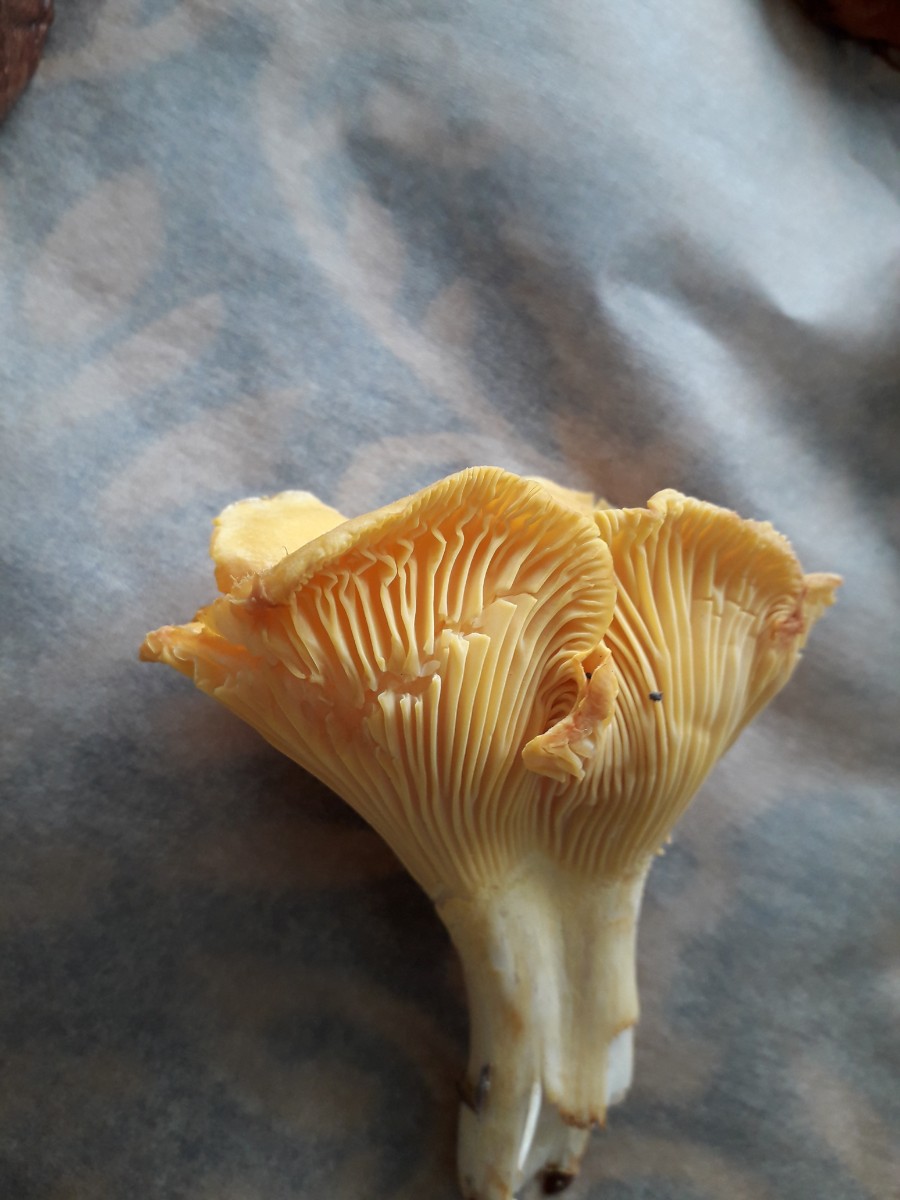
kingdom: Fungi
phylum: Basidiomycota
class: Agaricomycetes
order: Cantharellales
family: Hydnaceae
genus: Cantharellus
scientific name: Cantharellus cibarius
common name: almindelig kantarel
